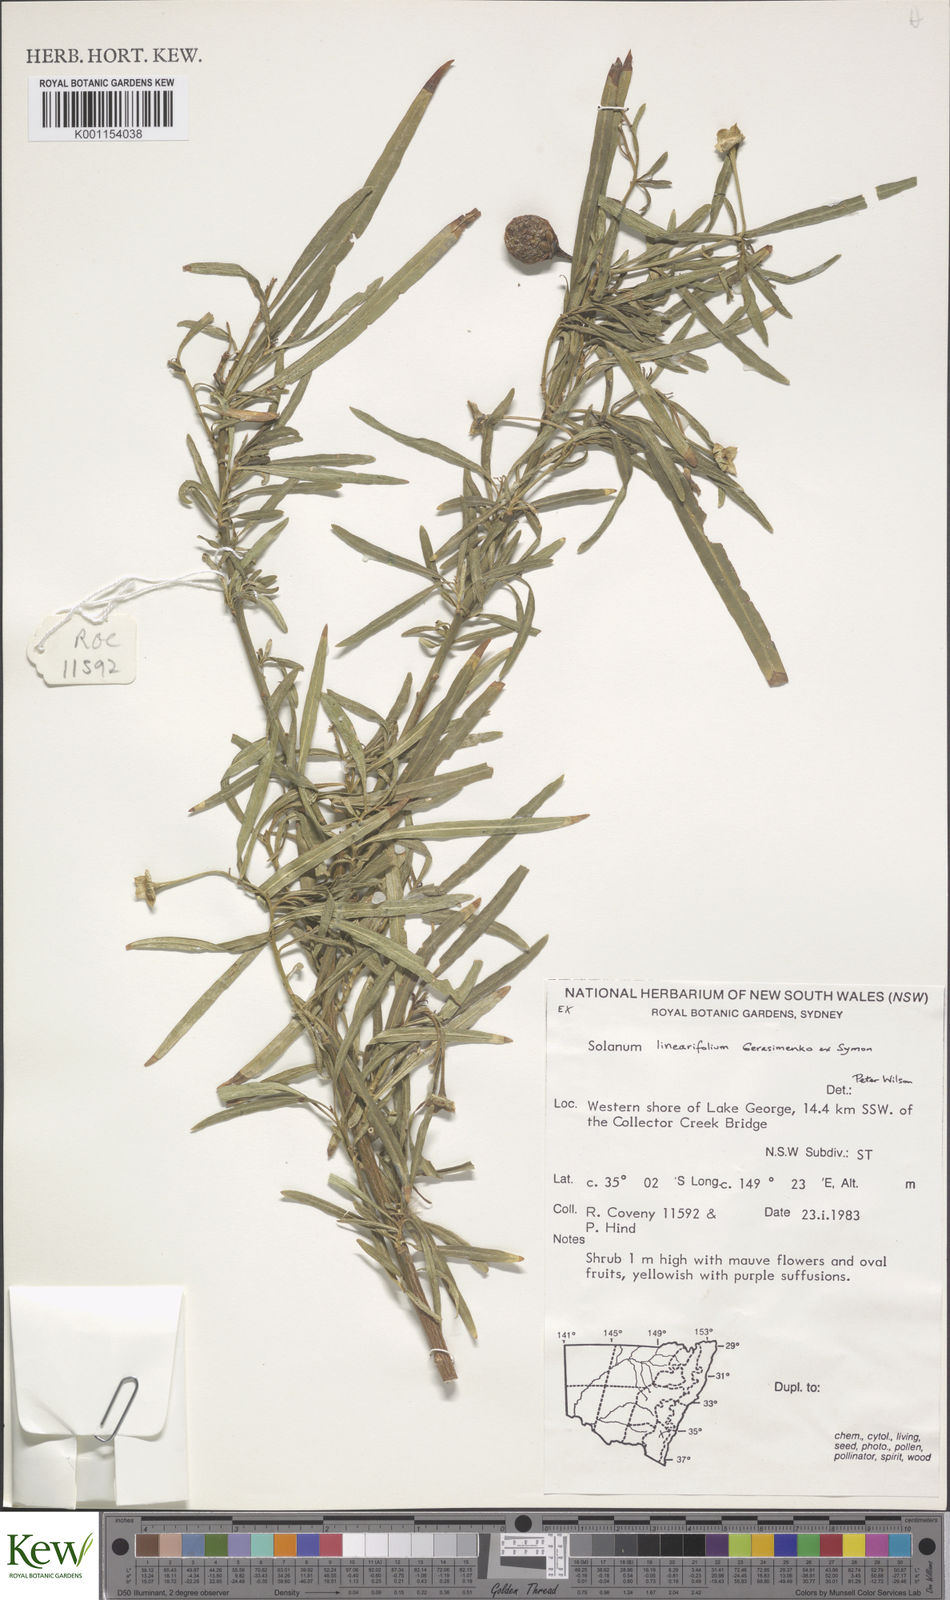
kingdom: Plantae
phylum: Tracheophyta
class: Magnoliopsida
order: Solanales
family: Solanaceae
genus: Solanum
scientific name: Solanum linearifolium
